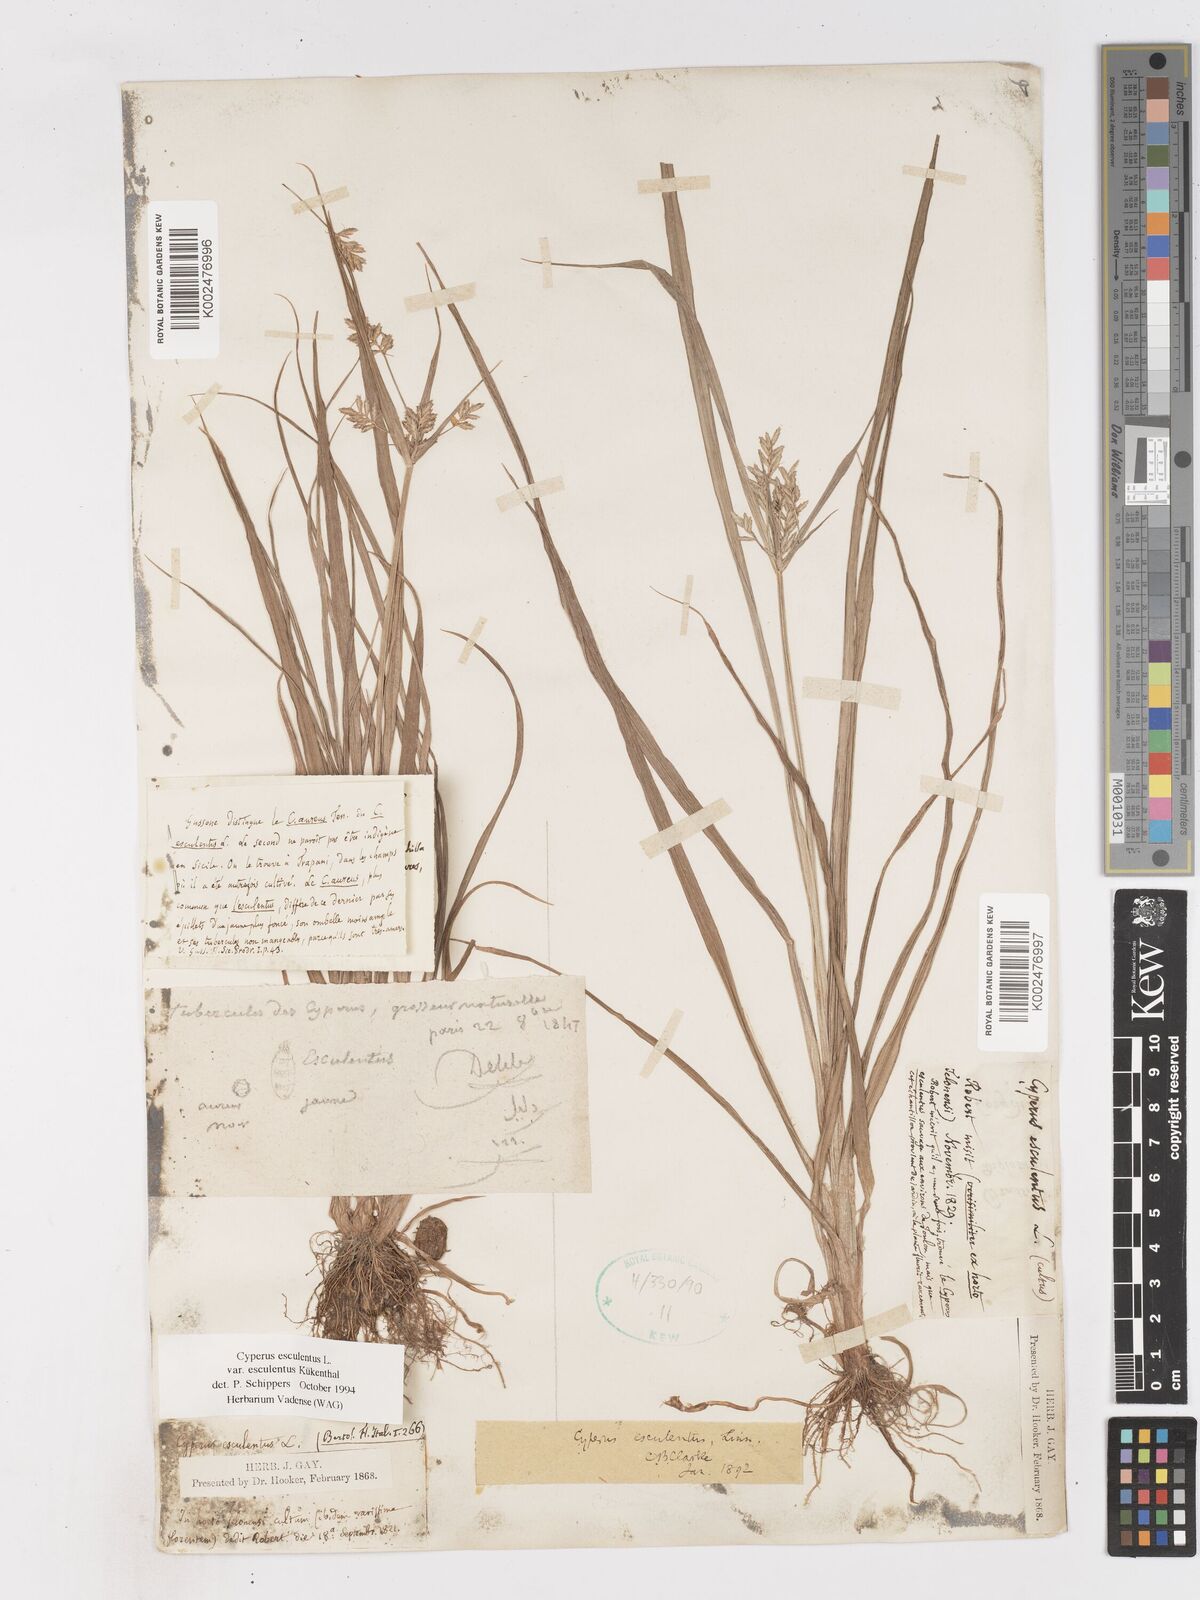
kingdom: Plantae
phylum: Tracheophyta
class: Liliopsida
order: Poales
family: Cyperaceae
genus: Cyperus
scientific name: Cyperus esculentus
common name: Yellow nutsedge
